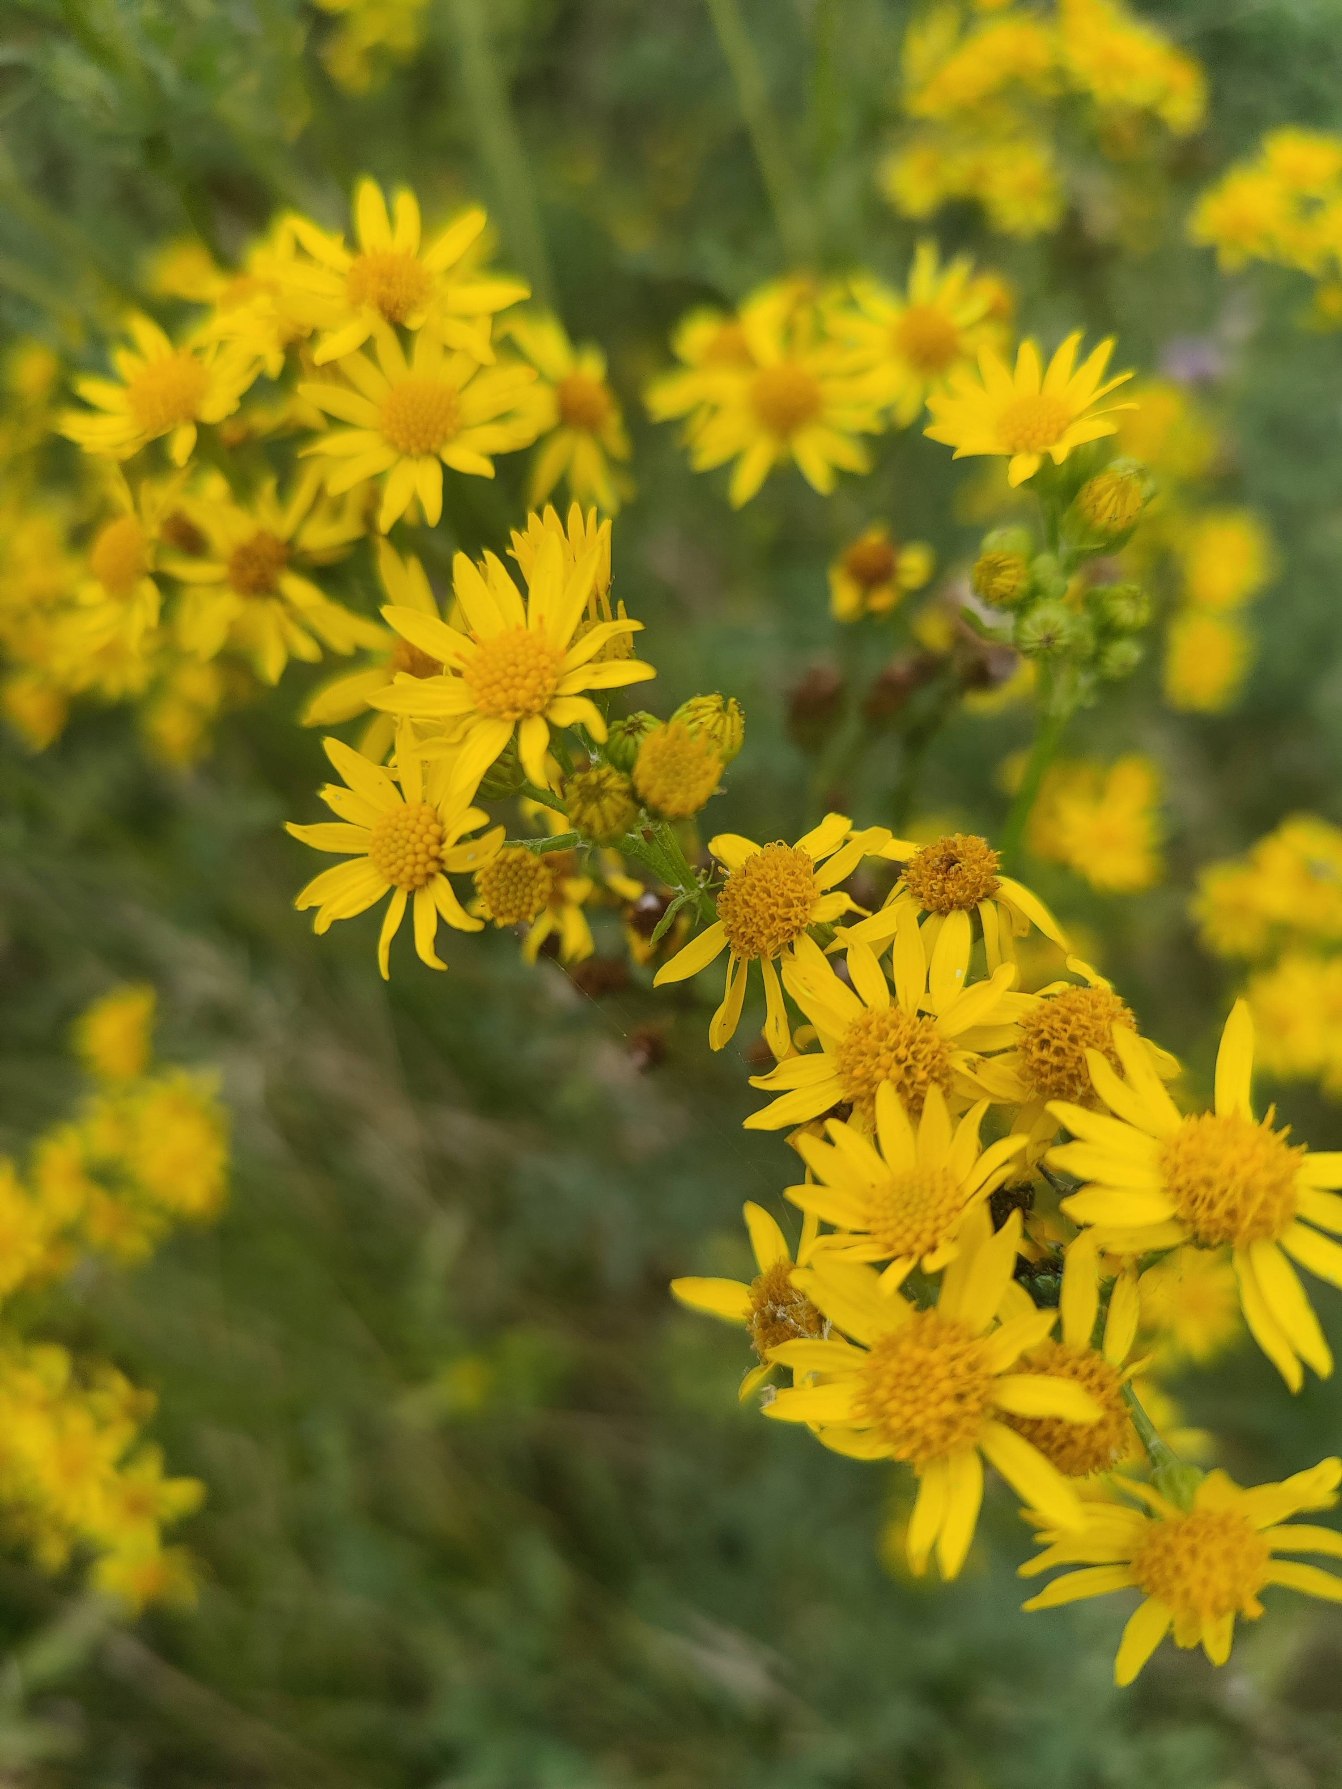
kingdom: Plantae
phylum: Tracheophyta
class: Magnoliopsida
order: Asterales
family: Asteraceae
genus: Jacobaea
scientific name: Jacobaea vulgaris
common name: Eng-brandbæger
